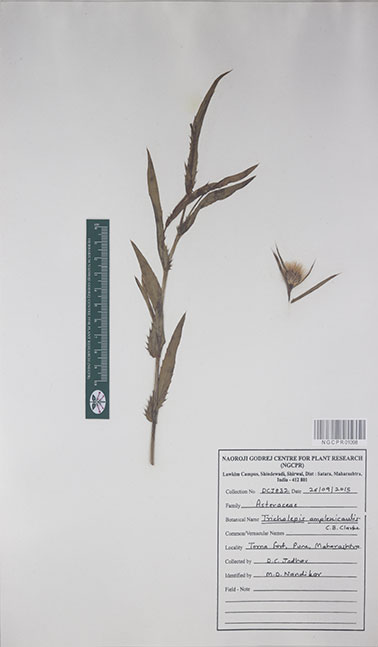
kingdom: Plantae
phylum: Tracheophyta
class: Magnoliopsida
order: Asterales
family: Asteraceae
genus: Tricholepis
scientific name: Tricholepis amplexicaulis
